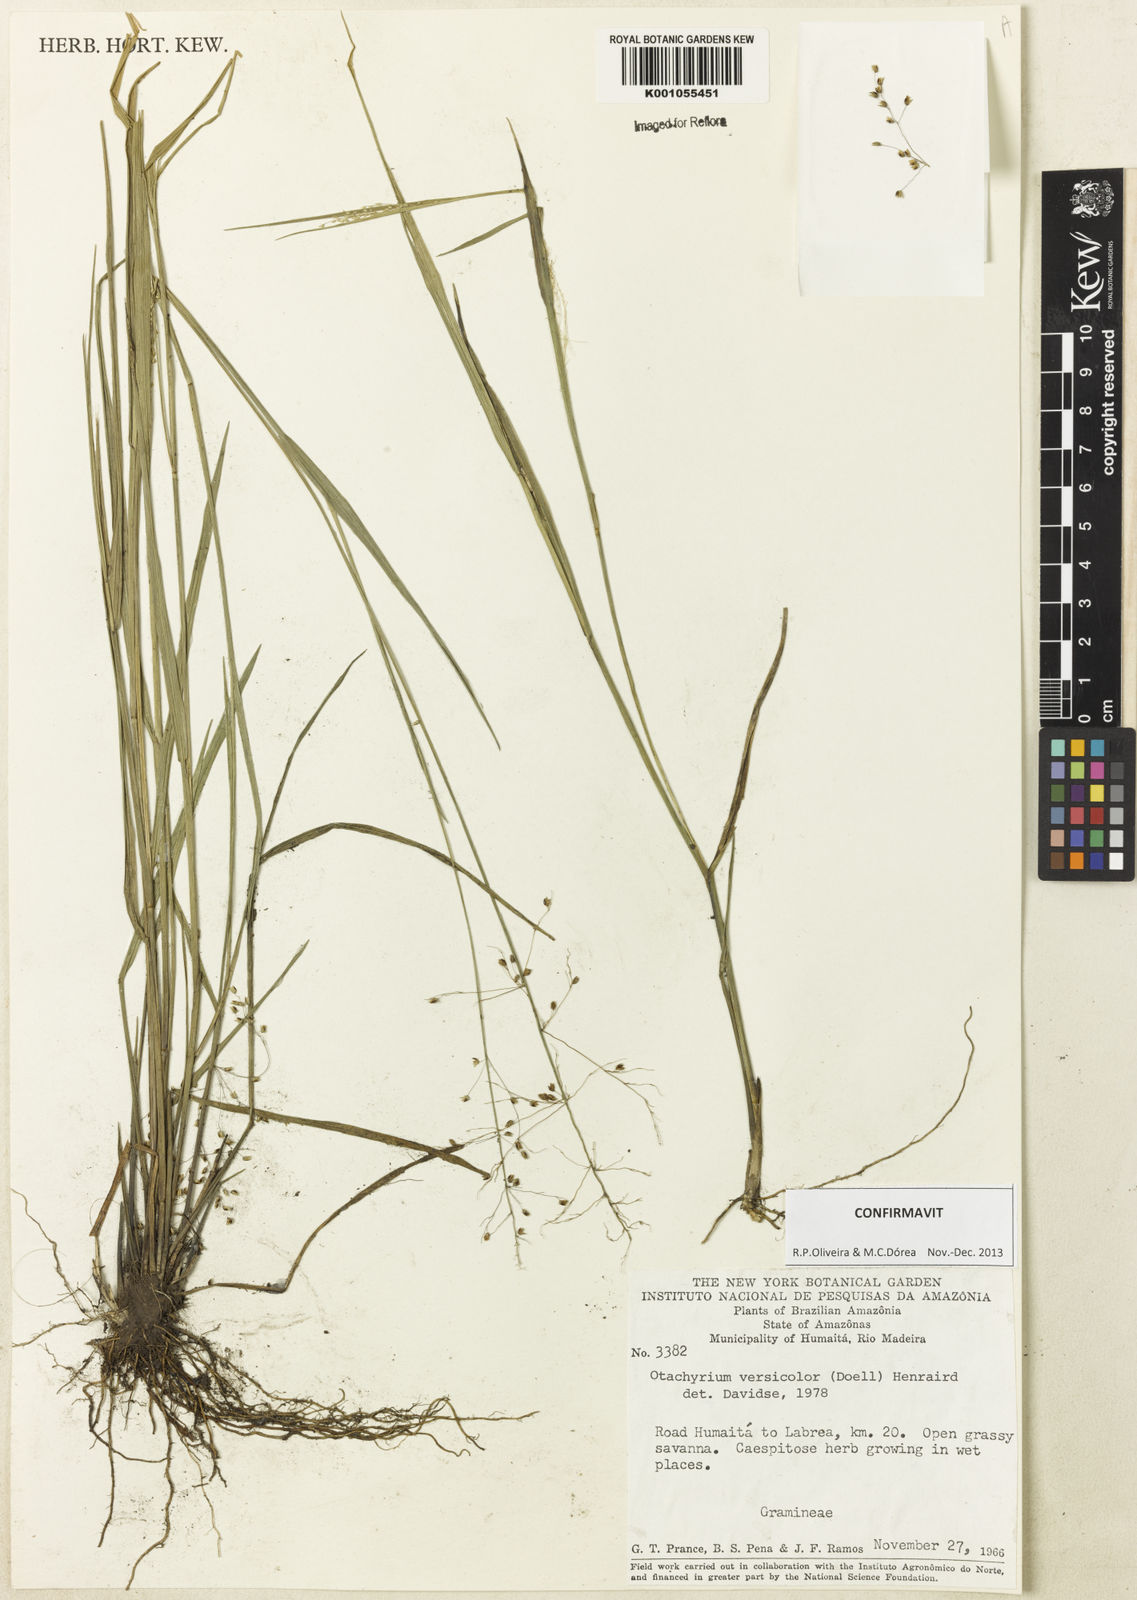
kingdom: Plantae
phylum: Tracheophyta
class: Liliopsida
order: Poales
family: Poaceae
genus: Otachyrium
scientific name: Otachyrium
